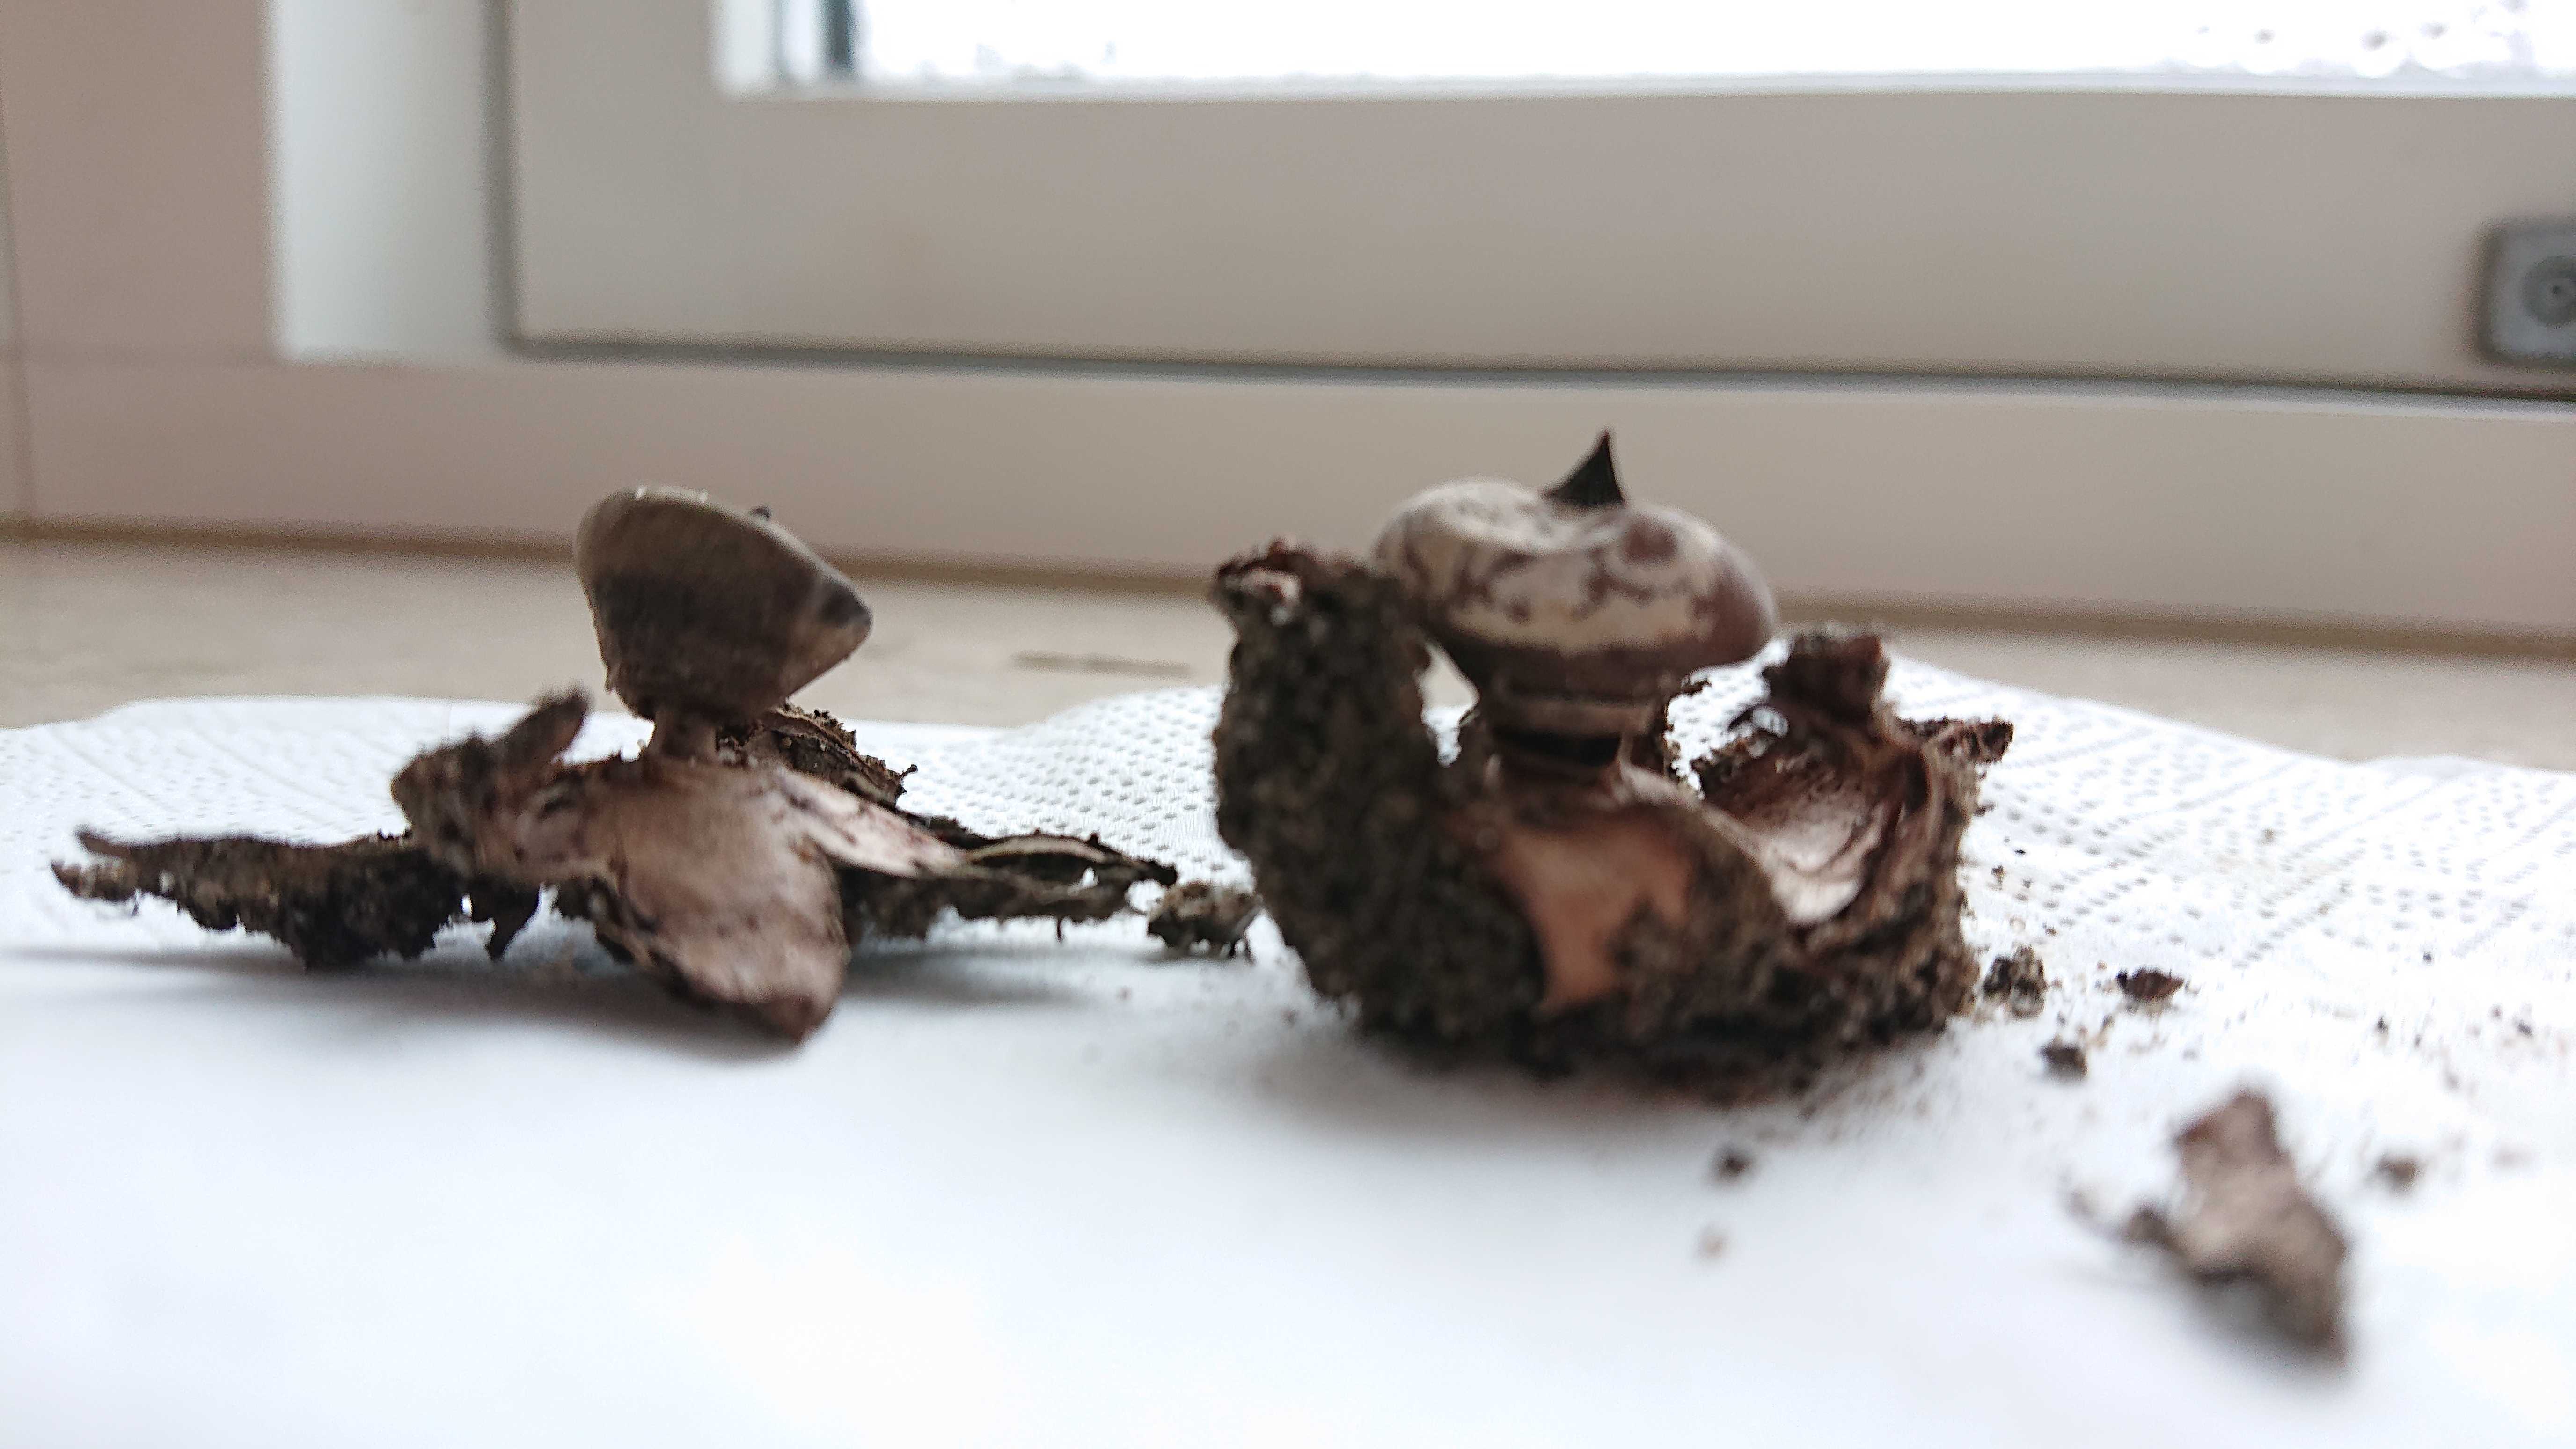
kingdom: Fungi
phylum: Basidiomycota
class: Agaricomycetes
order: Geastrales
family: Geastraceae
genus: Geastrum
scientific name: Geastrum striatum
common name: krave-stjernebold
